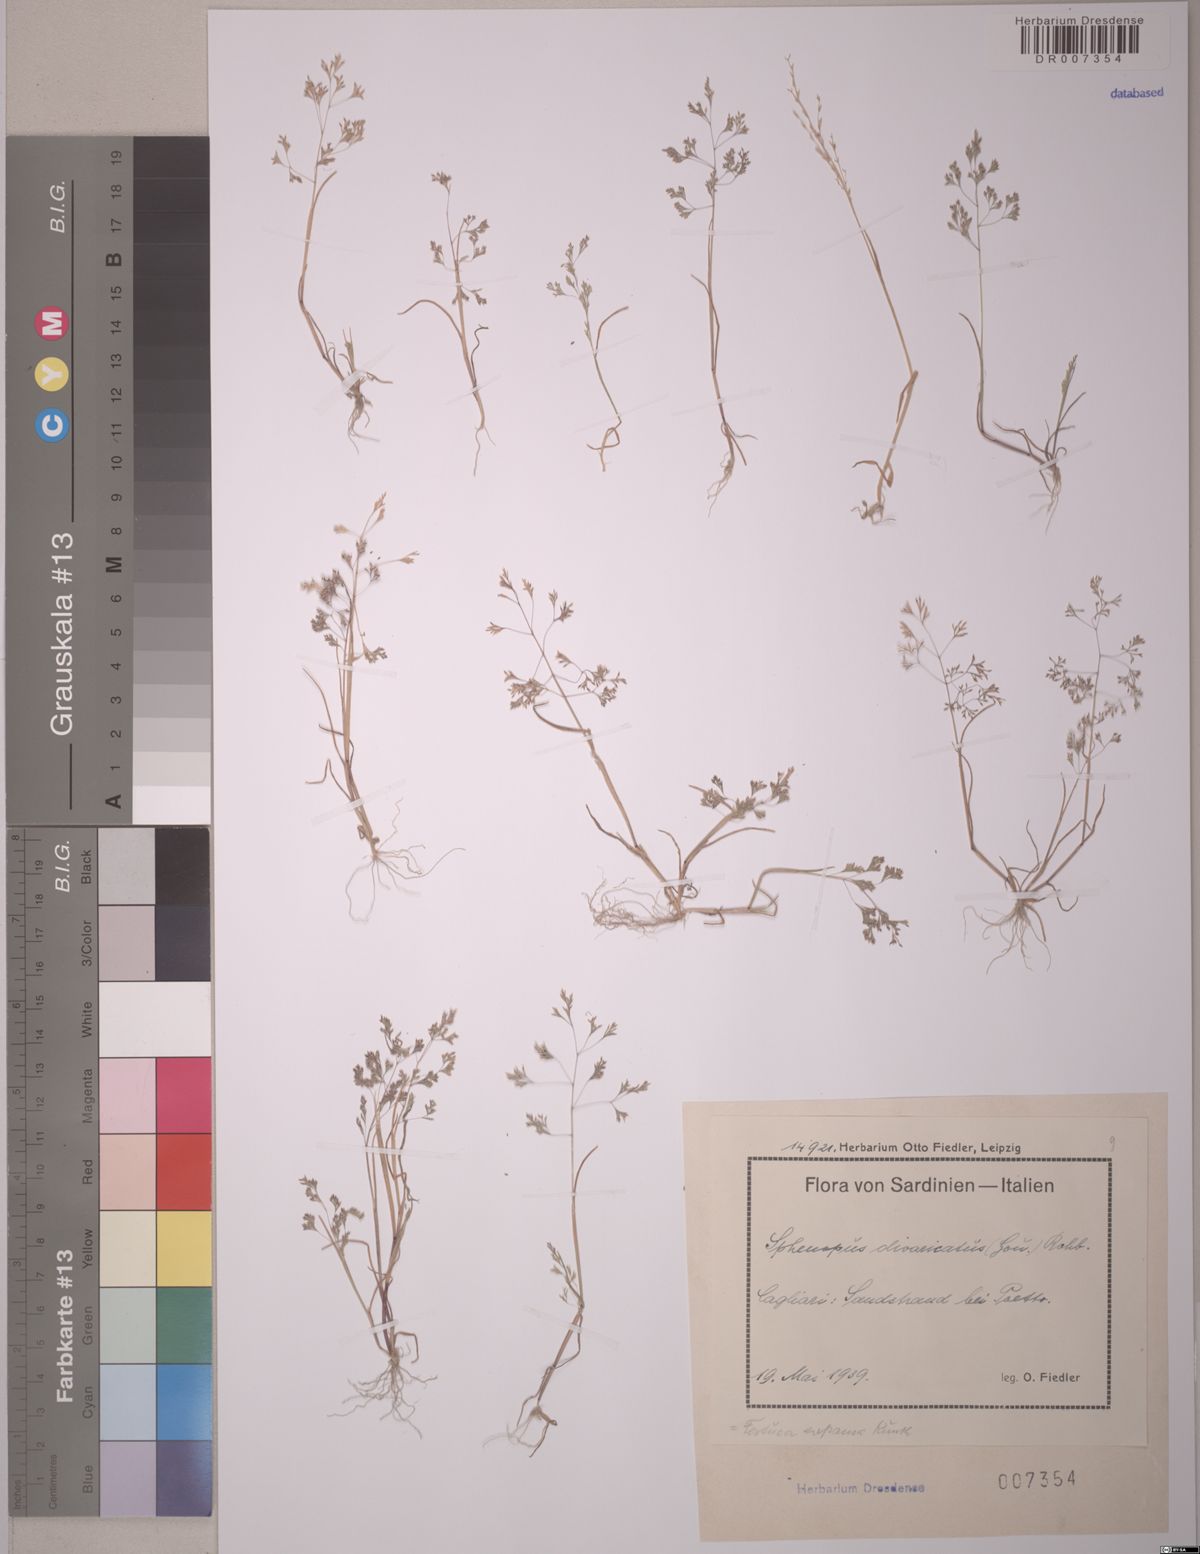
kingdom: Plantae
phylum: Tracheophyta
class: Liliopsida
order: Poales
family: Poaceae
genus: Sphenopus
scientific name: Sphenopus divaricatus
